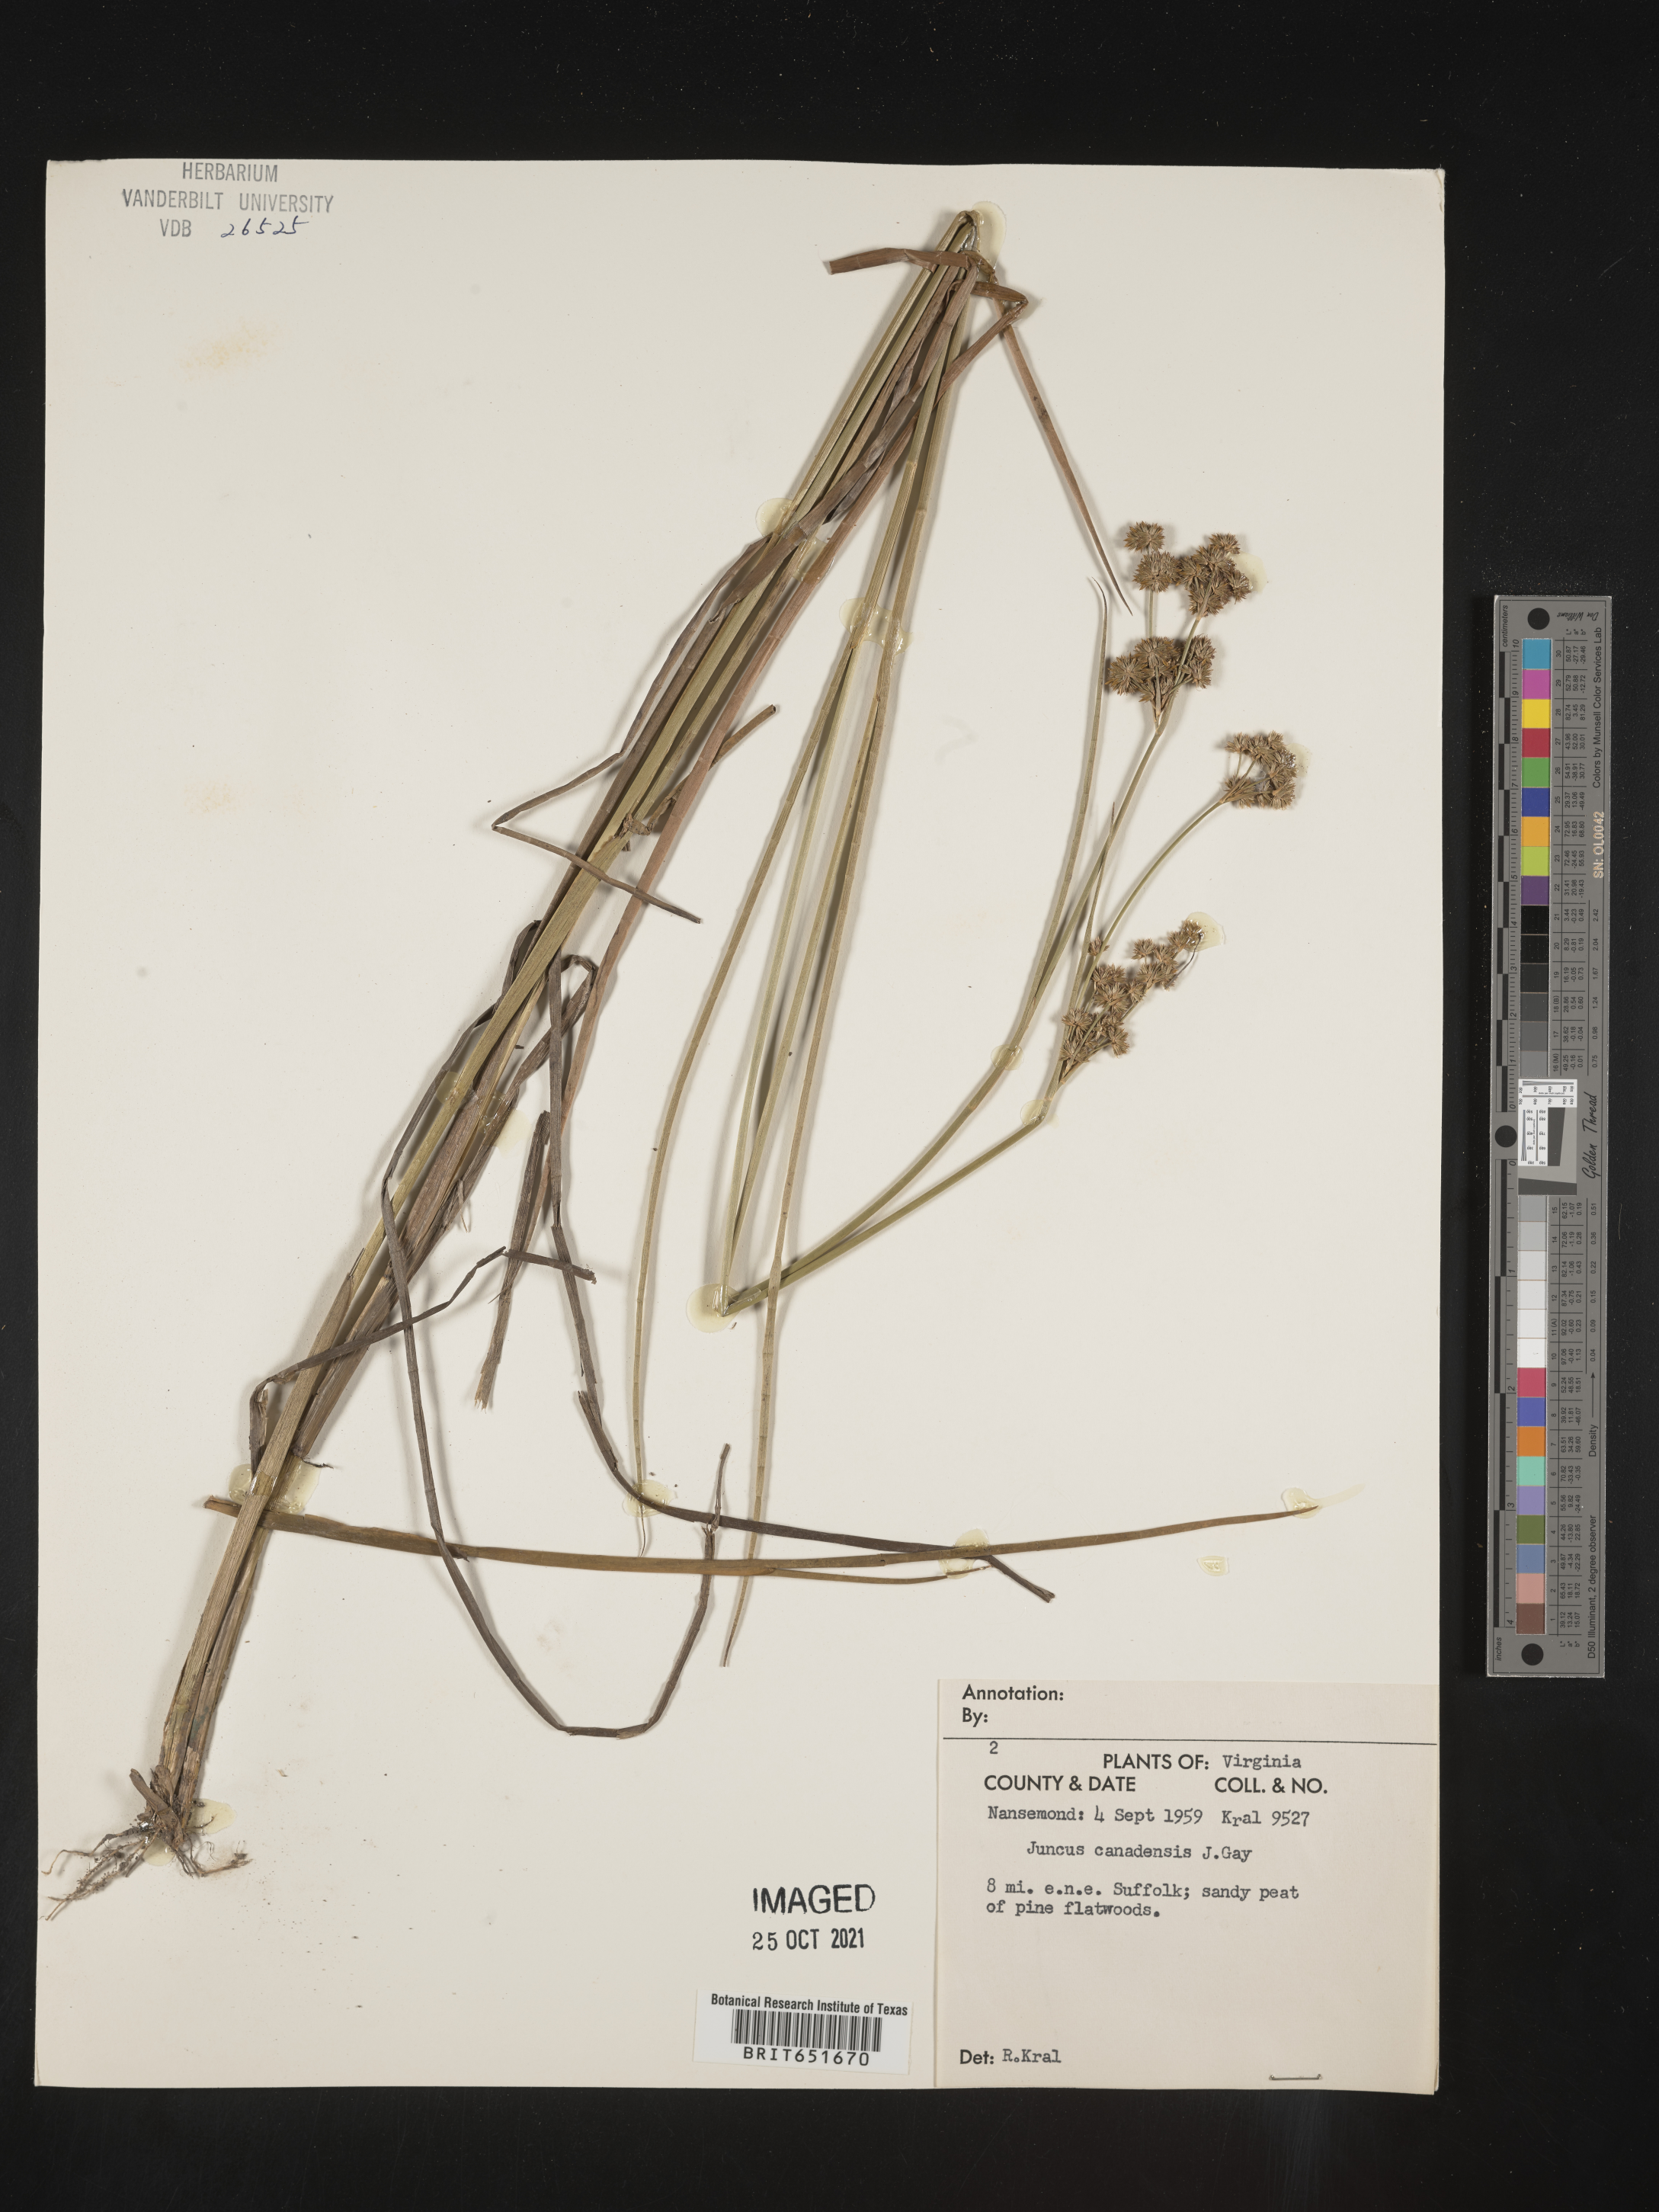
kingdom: Plantae
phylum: Tracheophyta
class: Liliopsida
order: Poales
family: Juncaceae
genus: Juncus
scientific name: Juncus canadensis
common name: Canada rush
